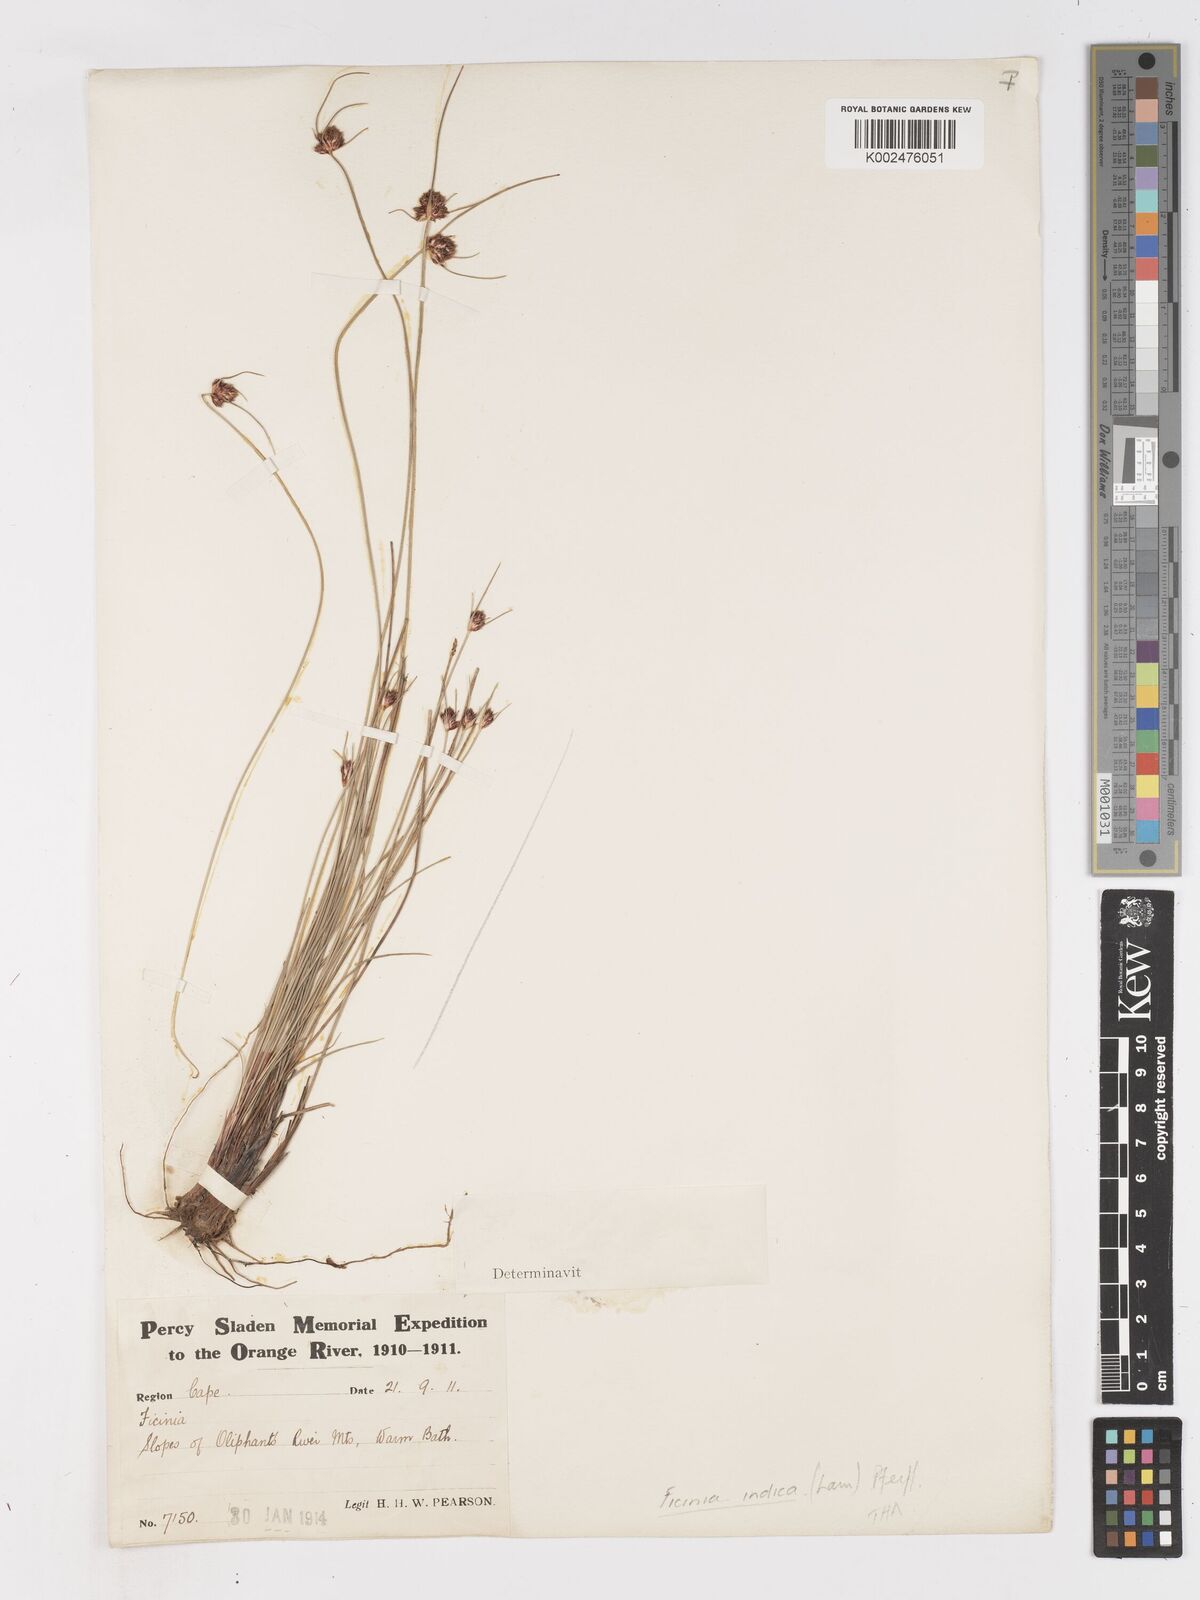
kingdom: Plantae
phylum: Tracheophyta
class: Liliopsida
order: Poales
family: Cyperaceae
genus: Ficinia
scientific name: Ficinia indica
